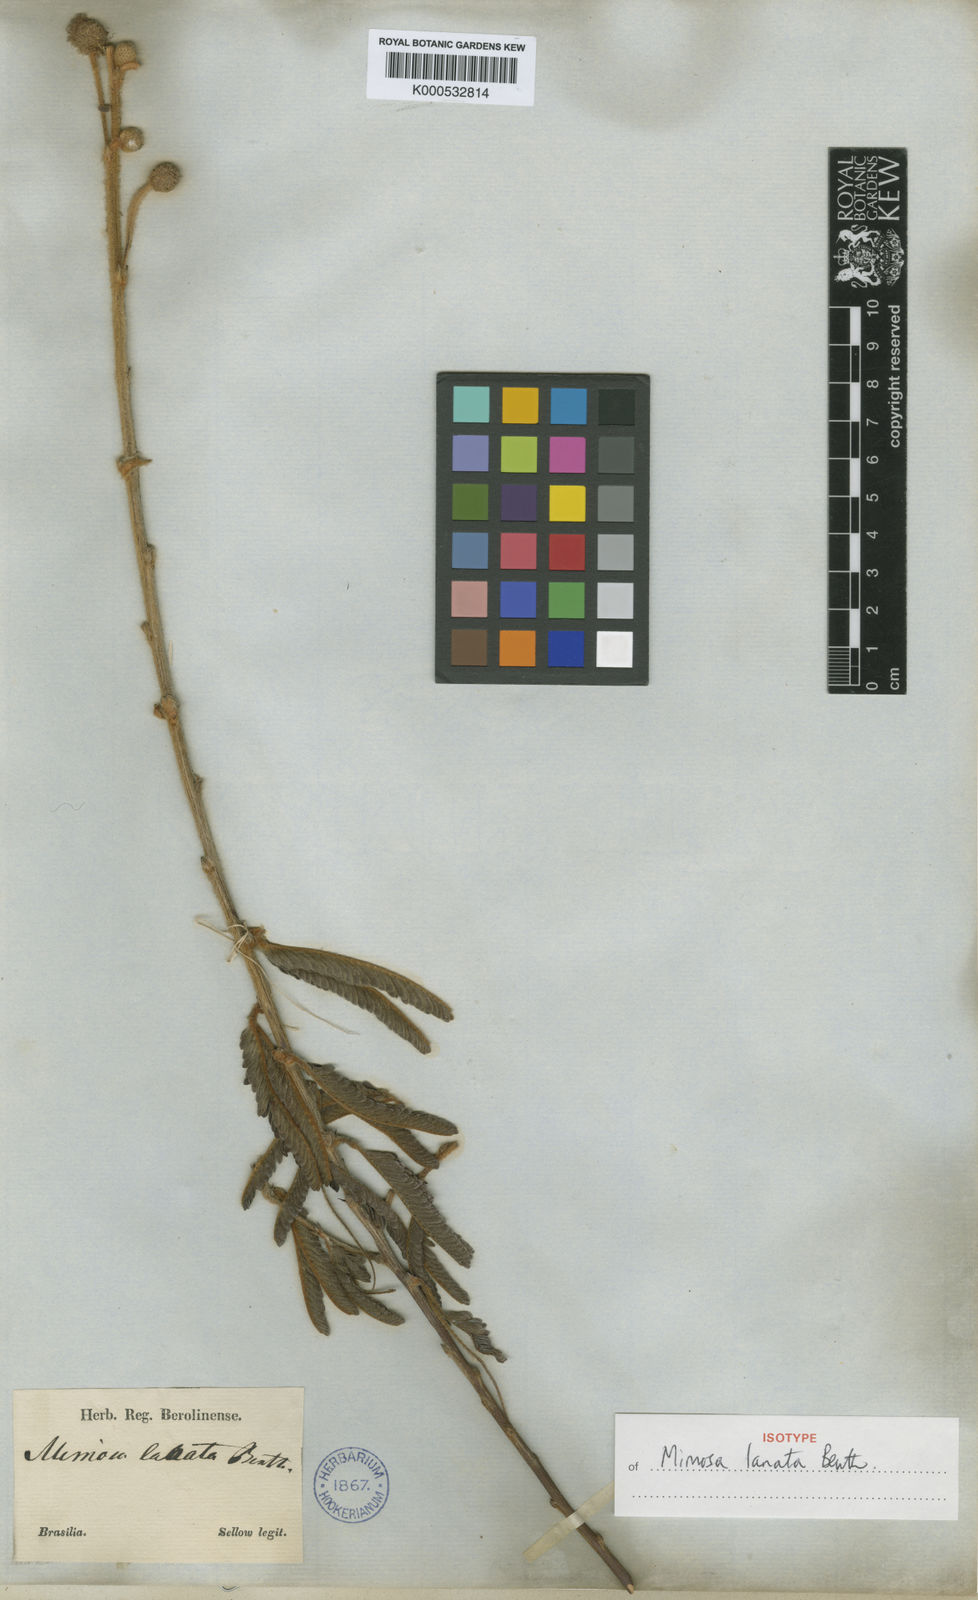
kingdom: Plantae
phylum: Tracheophyta
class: Magnoliopsida
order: Fabales
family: Fabaceae
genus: Mimosa
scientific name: Mimosa lanata
